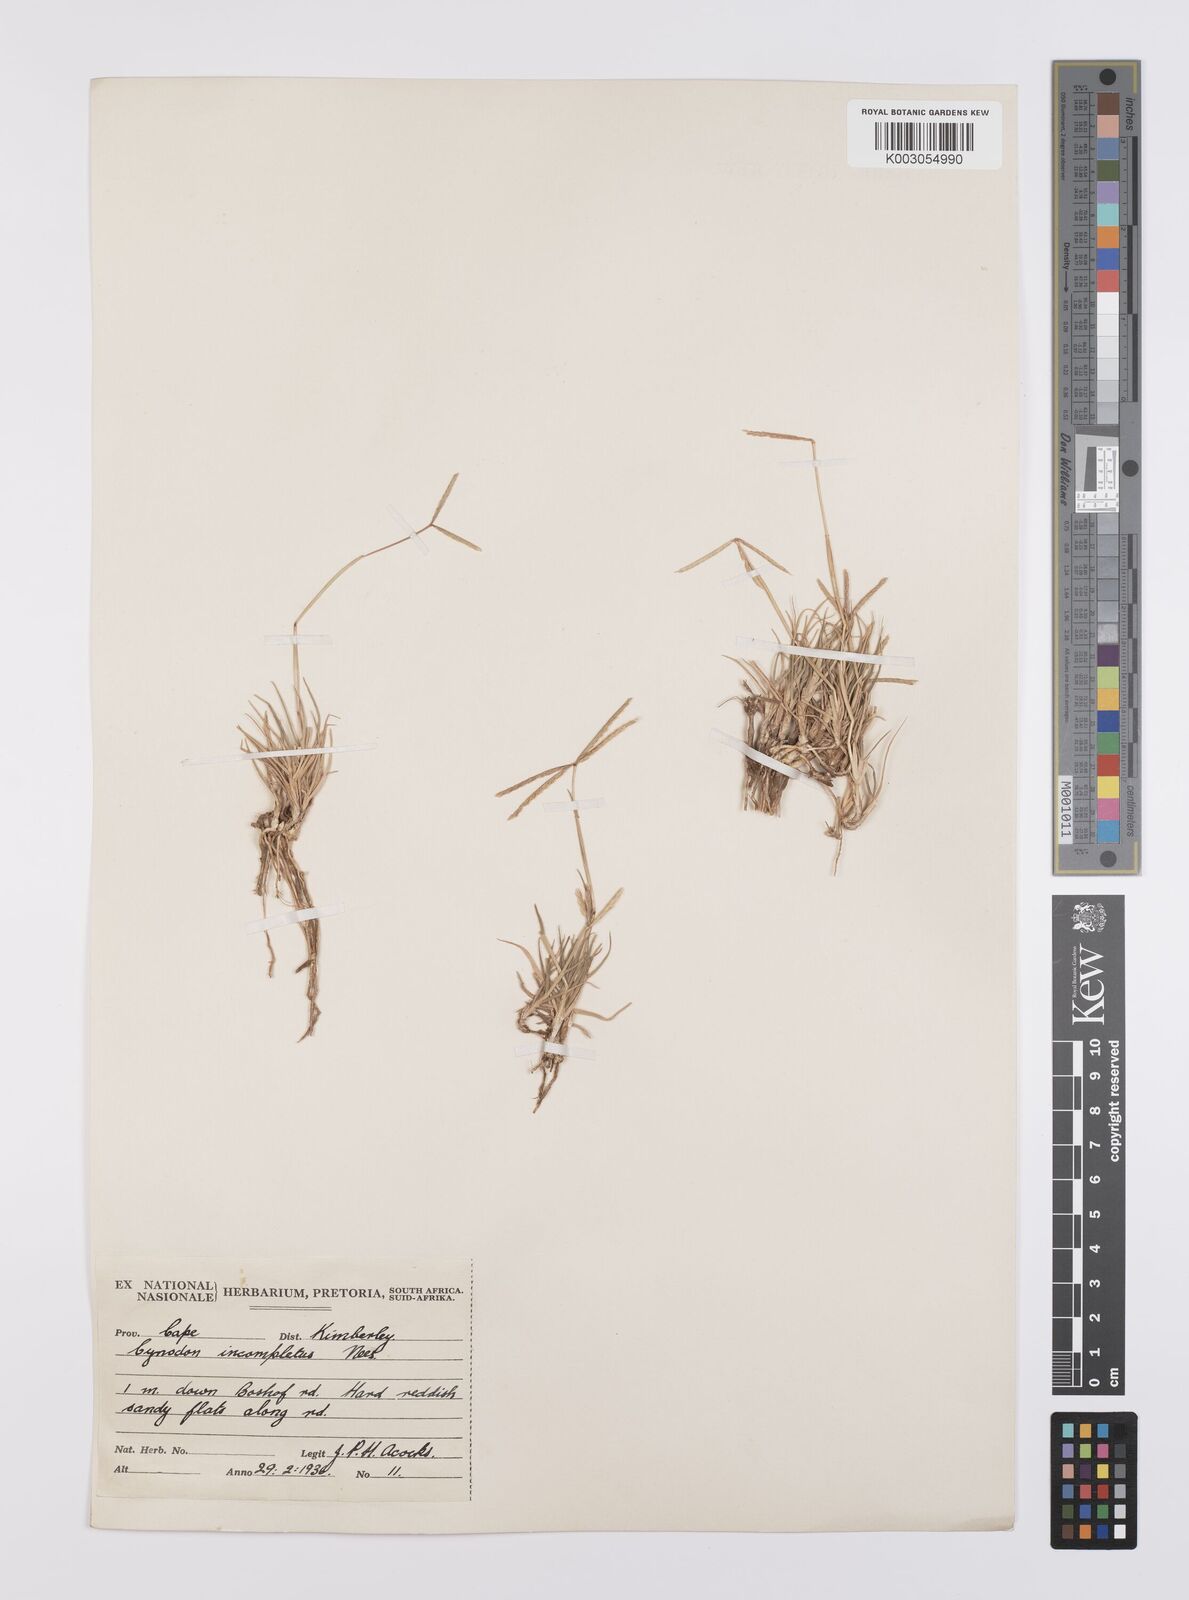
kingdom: Plantae
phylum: Tracheophyta
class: Liliopsida
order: Poales
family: Poaceae
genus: Cynodon
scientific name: Cynodon incompletus
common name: African bermuda-grass
